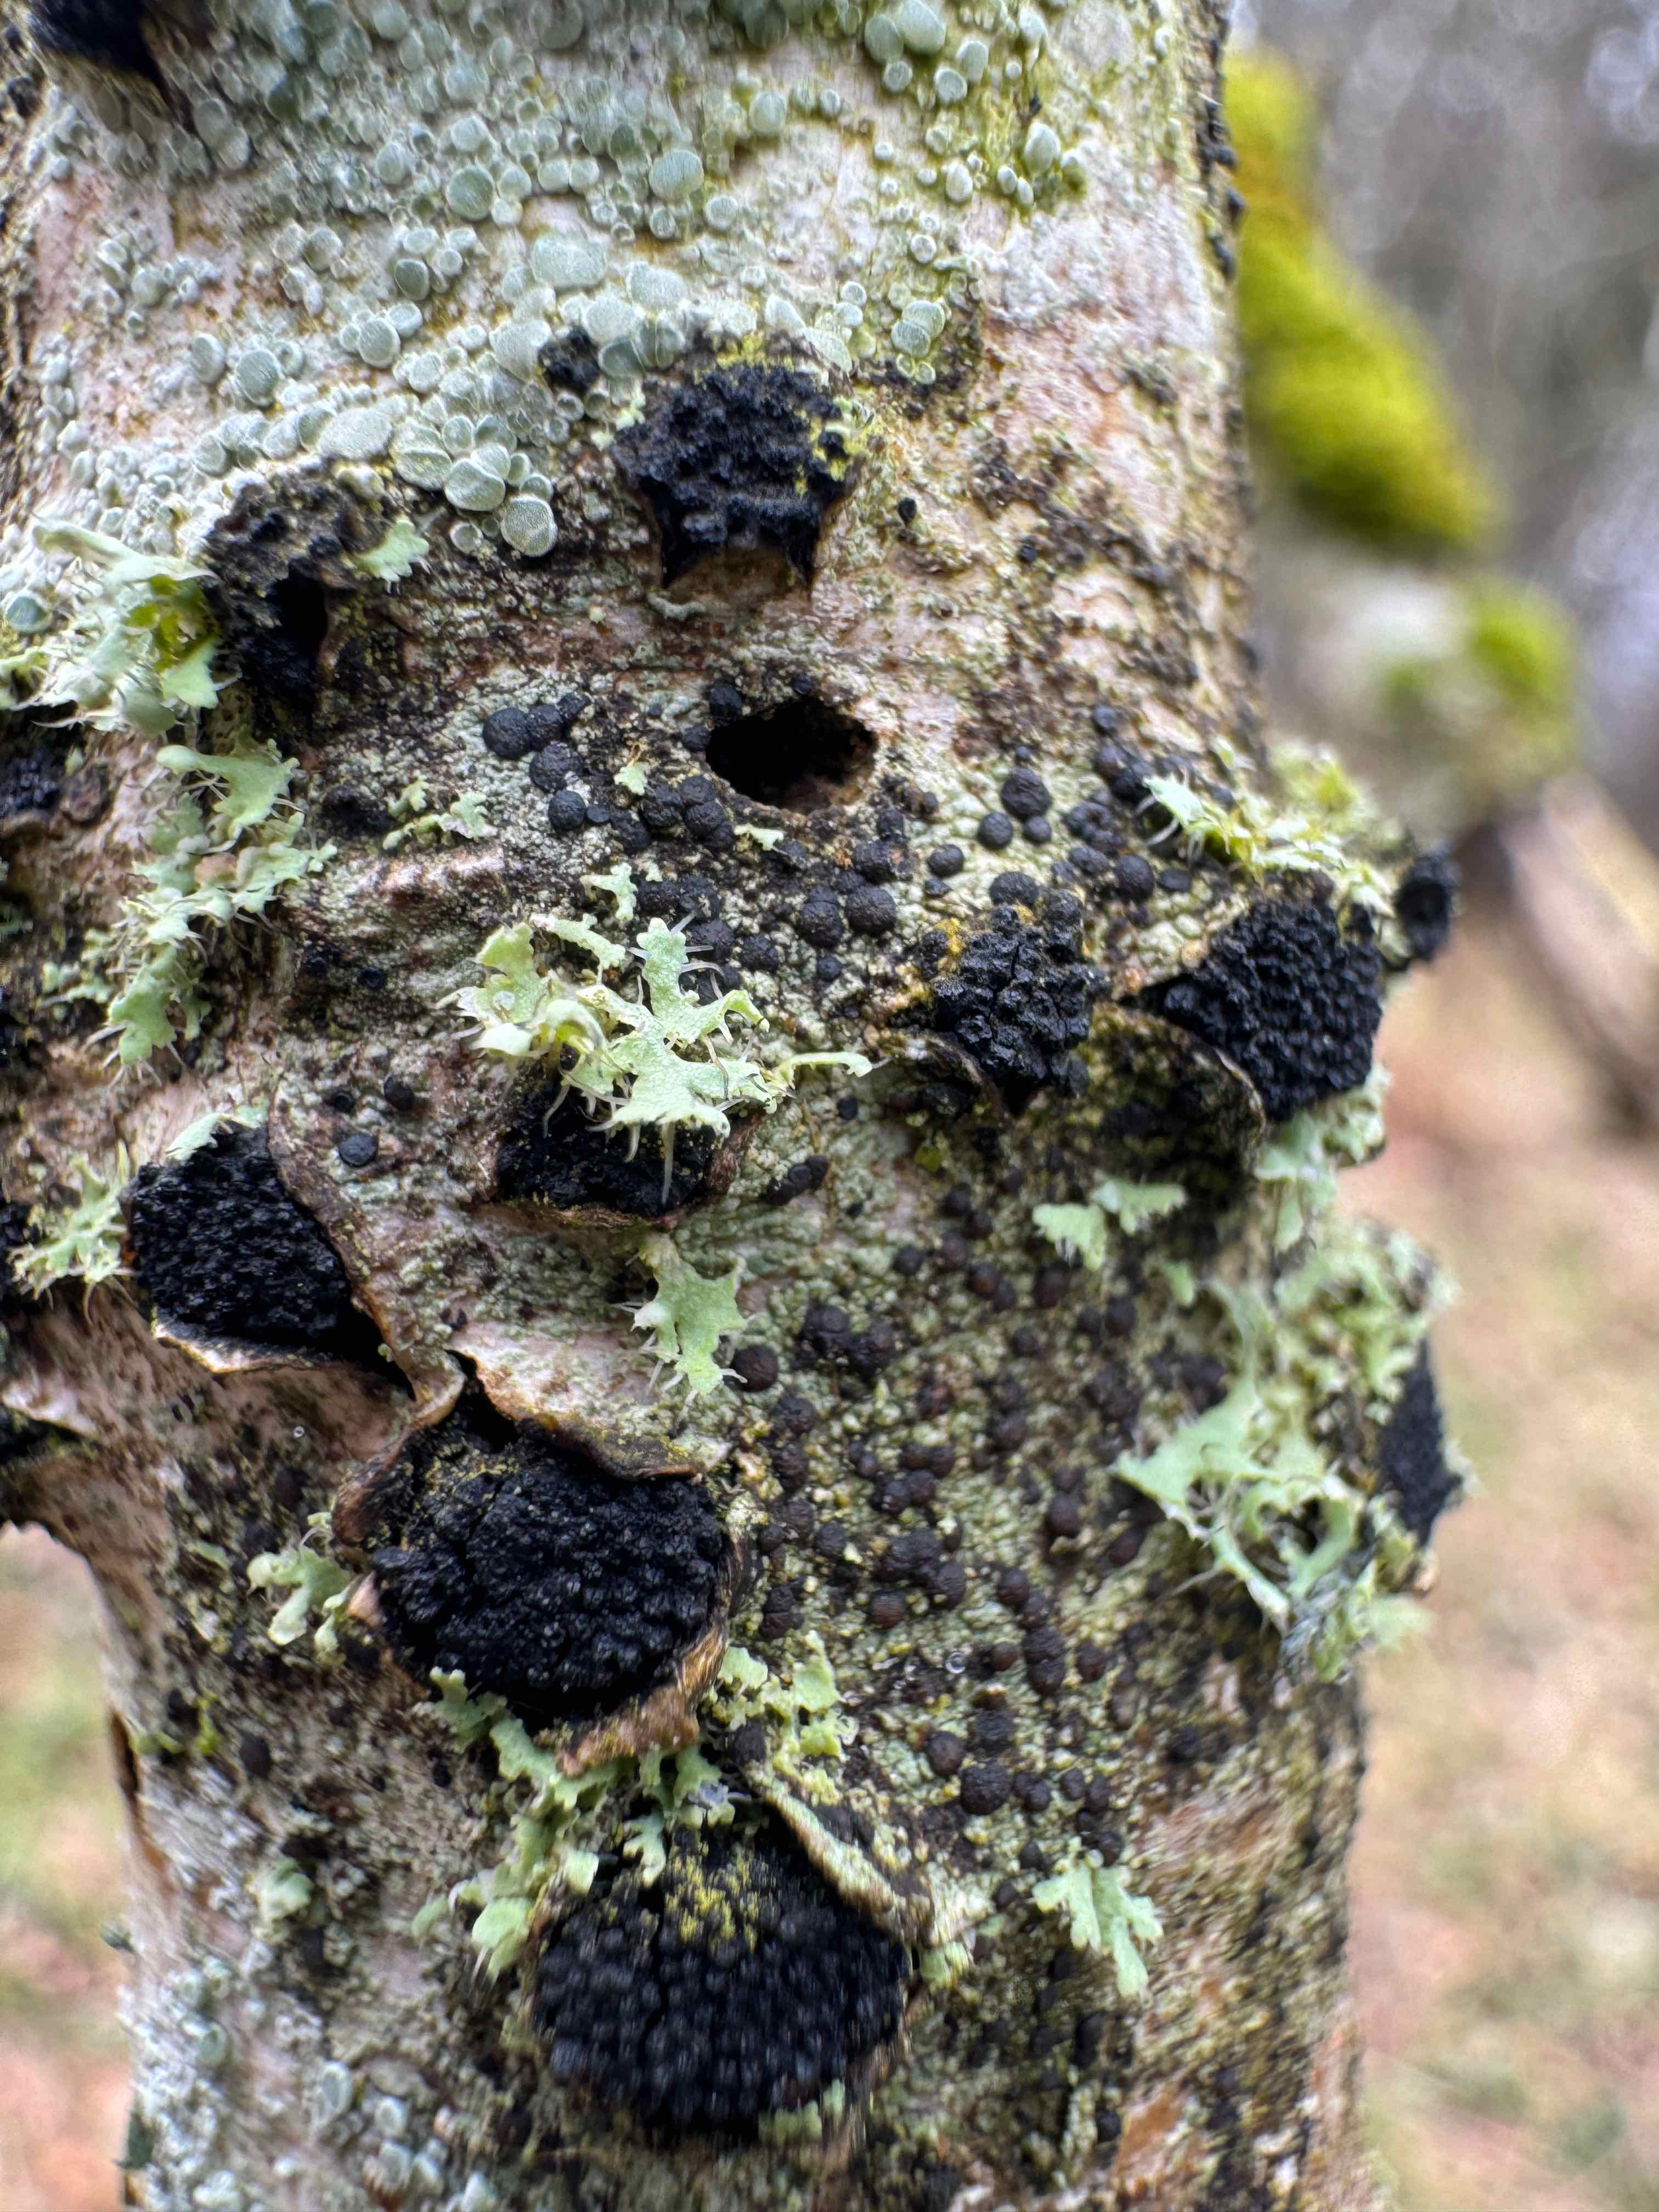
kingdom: Fungi
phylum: Ascomycota
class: Sordariomycetes
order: Xylariales
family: Diatrypaceae
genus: Eutypella
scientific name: Eutypella sorbi
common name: rønne-kulskorpe
